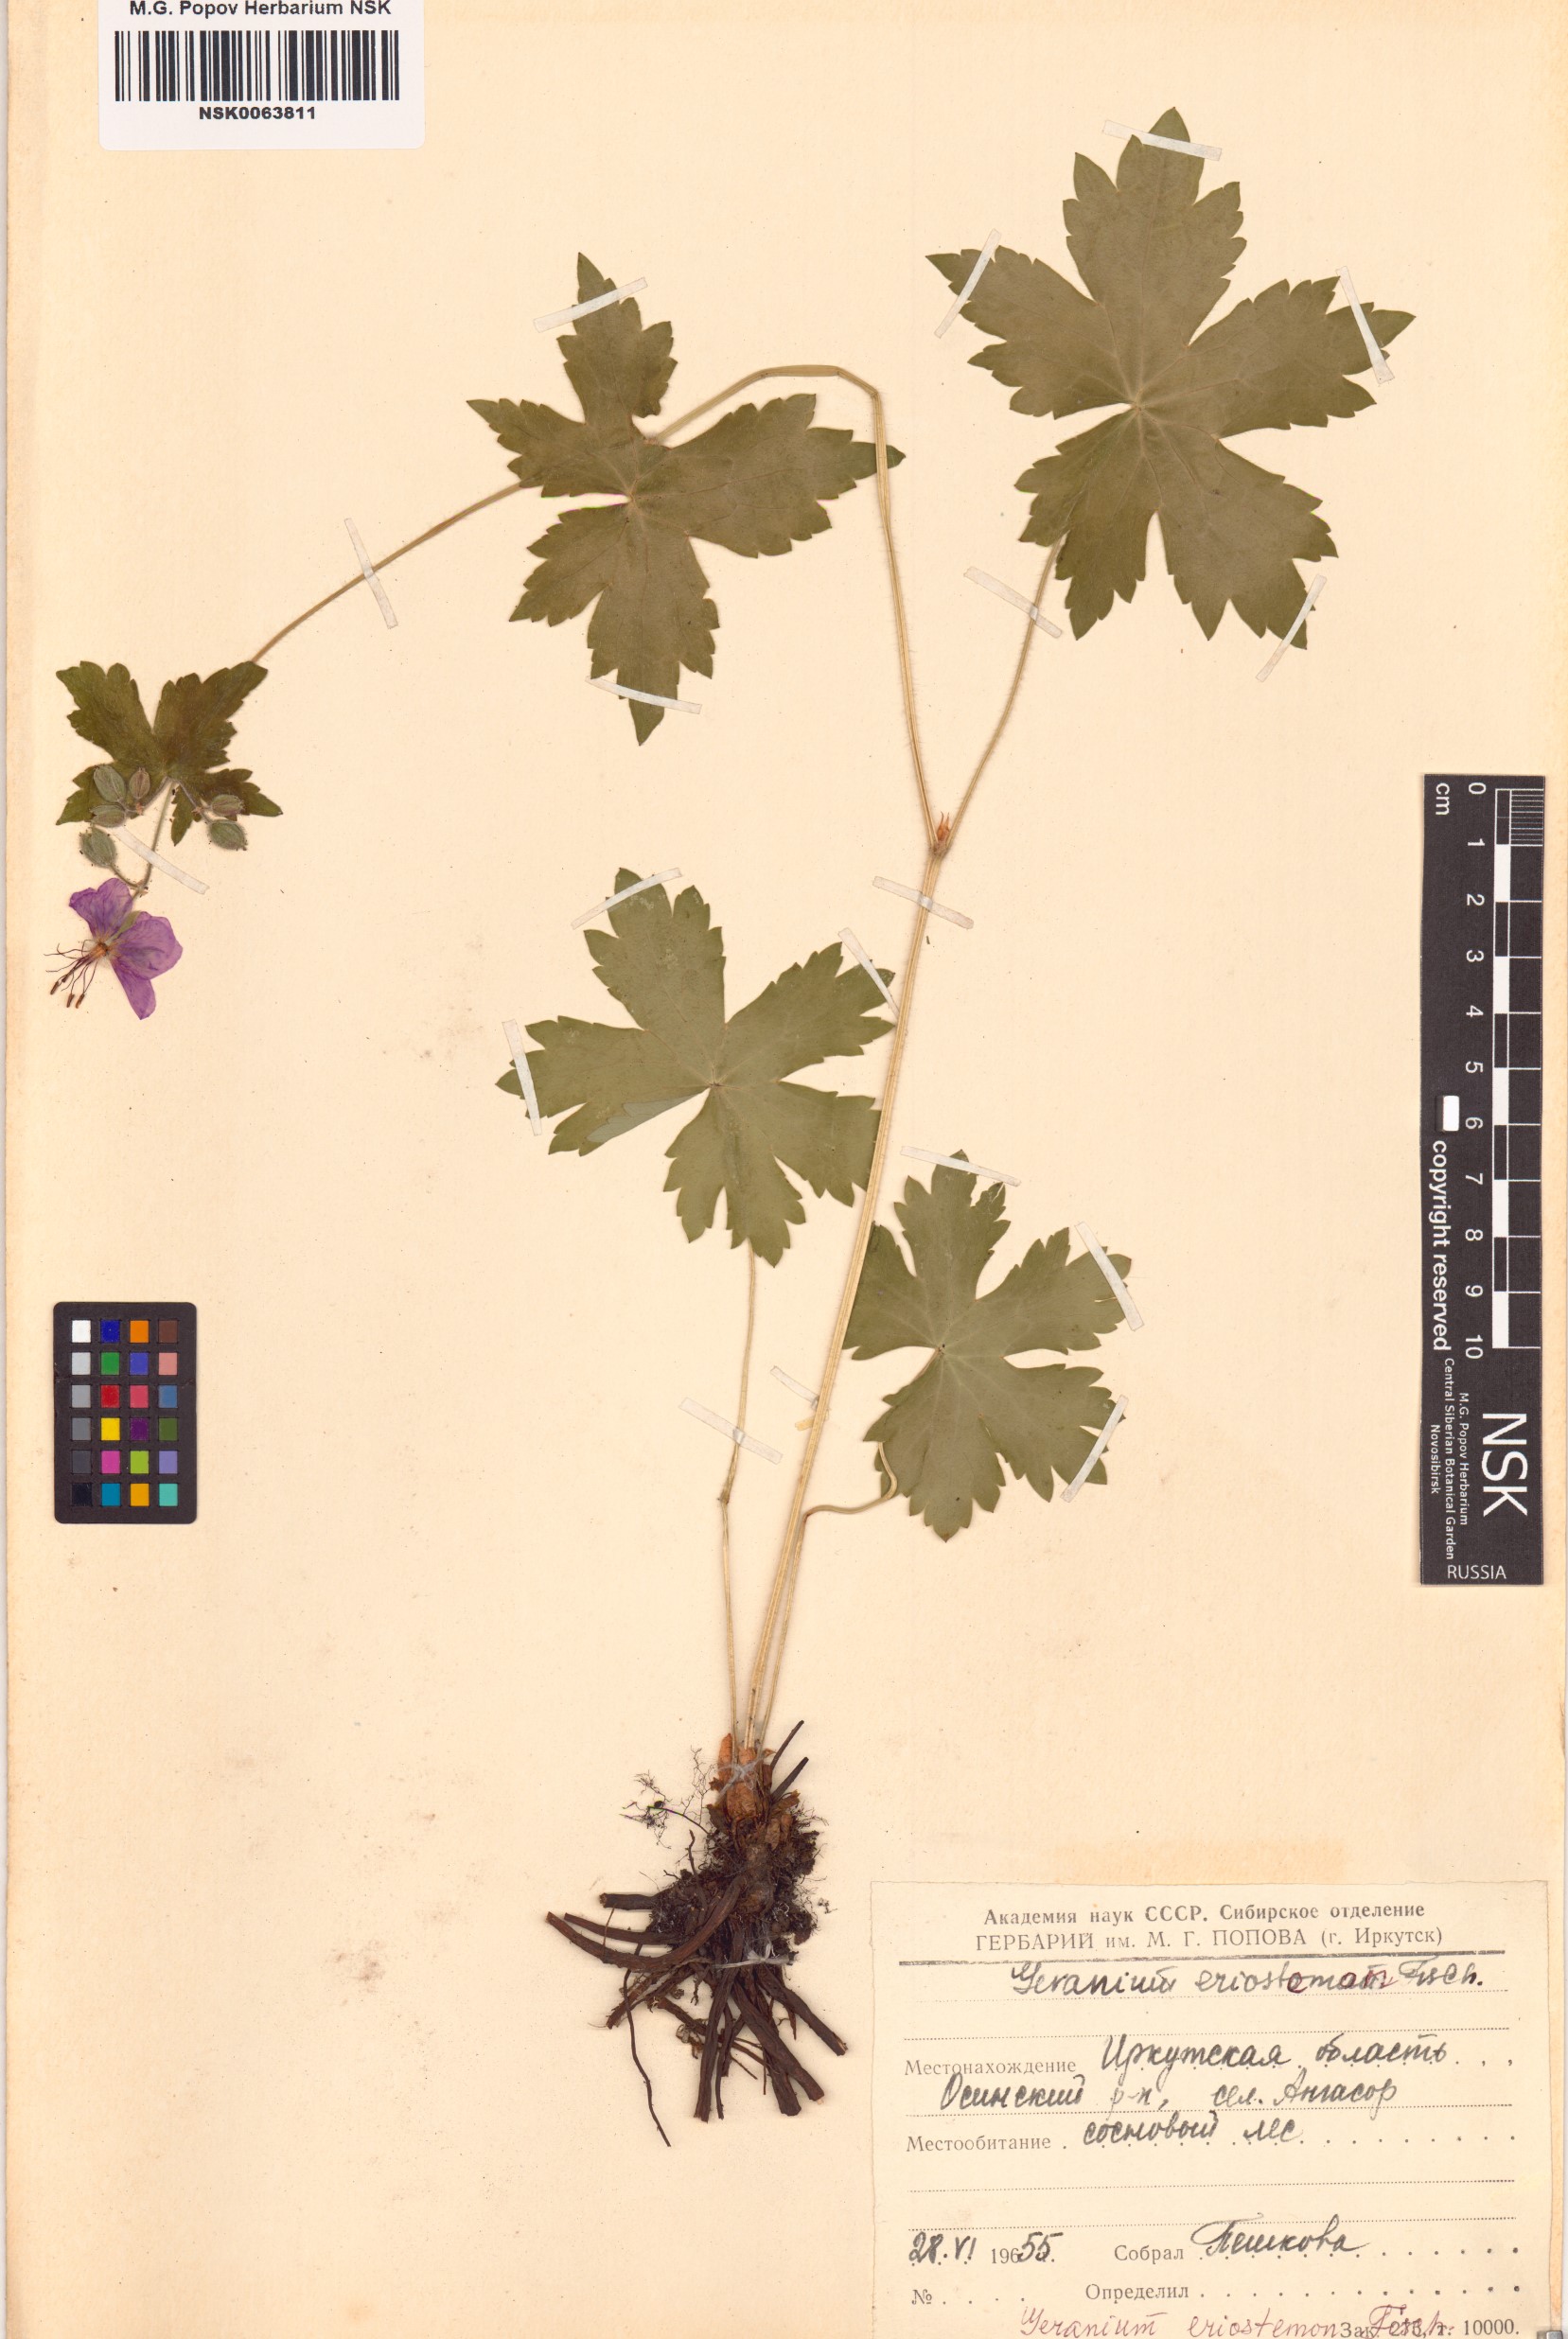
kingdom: Plantae
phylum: Tracheophyta
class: Magnoliopsida
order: Geraniales
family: Geraniaceae
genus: Geranium
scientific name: Geranium platyanthum
